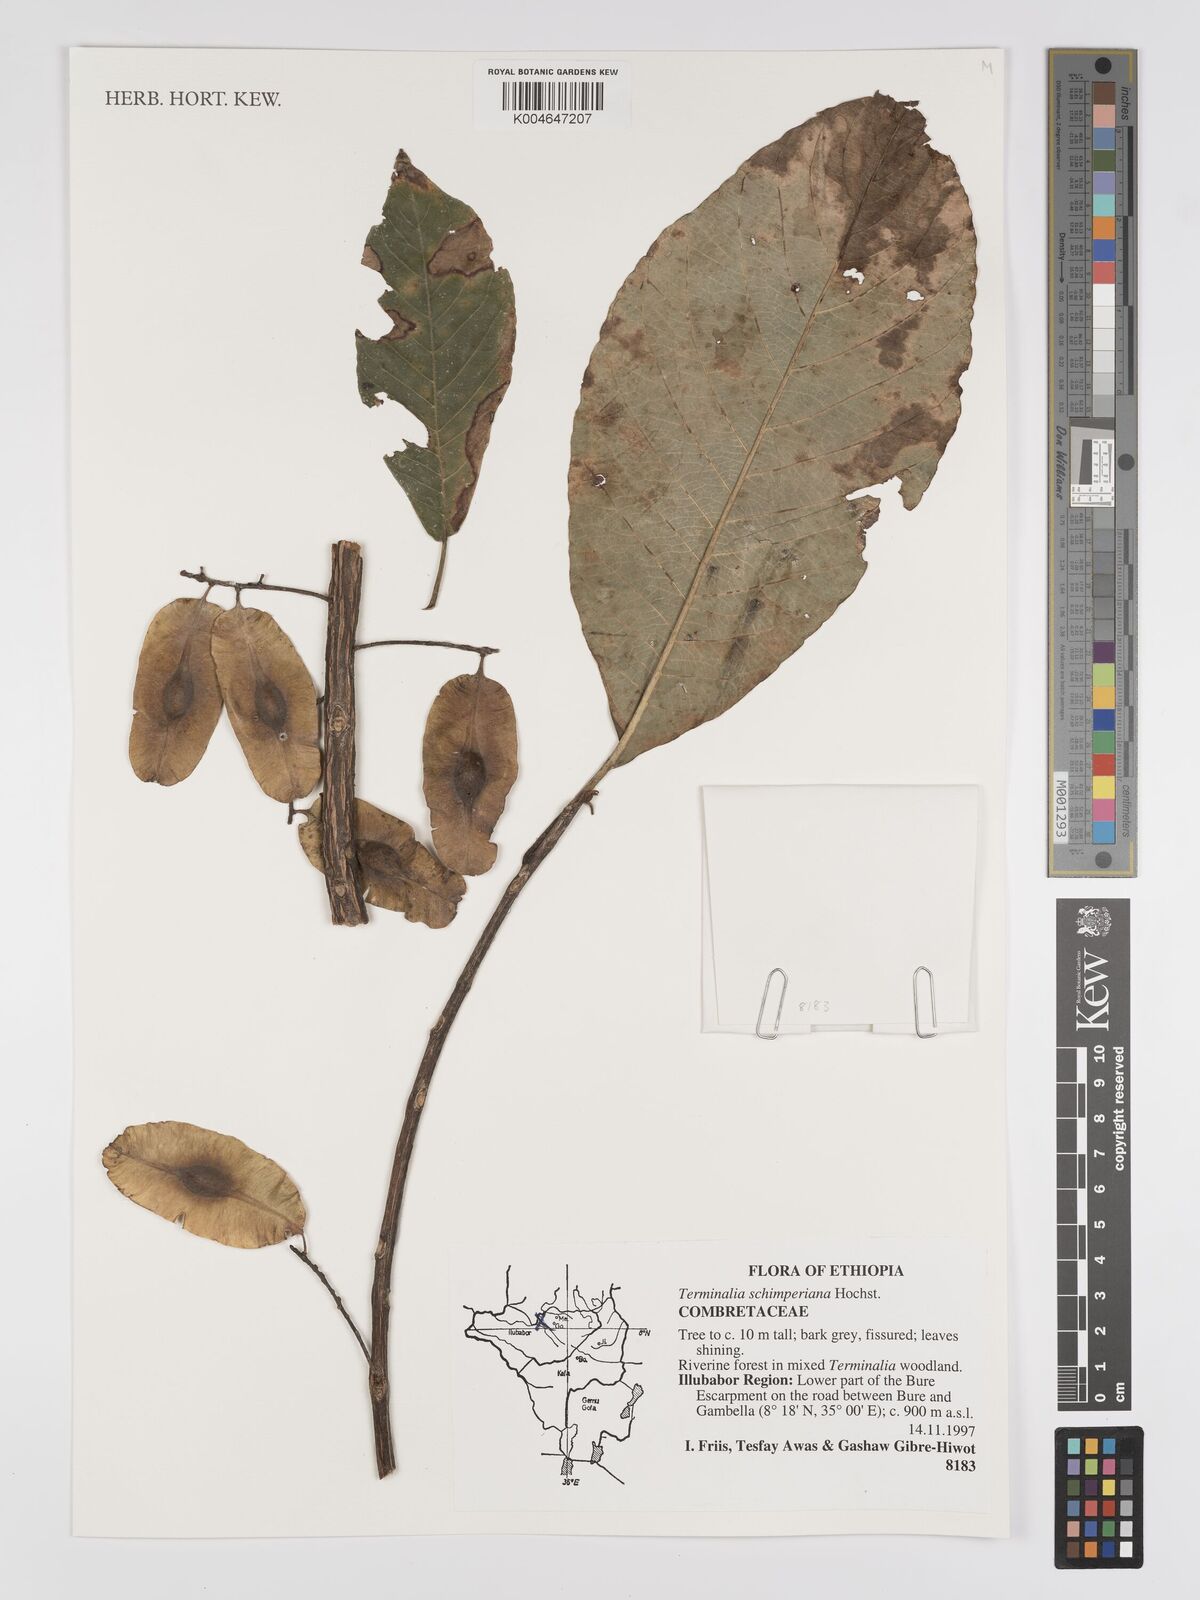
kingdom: Plantae
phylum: Tracheophyta
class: Magnoliopsida
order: Myrtales
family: Combretaceae
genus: Terminalia
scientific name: Terminalia schimperiana
